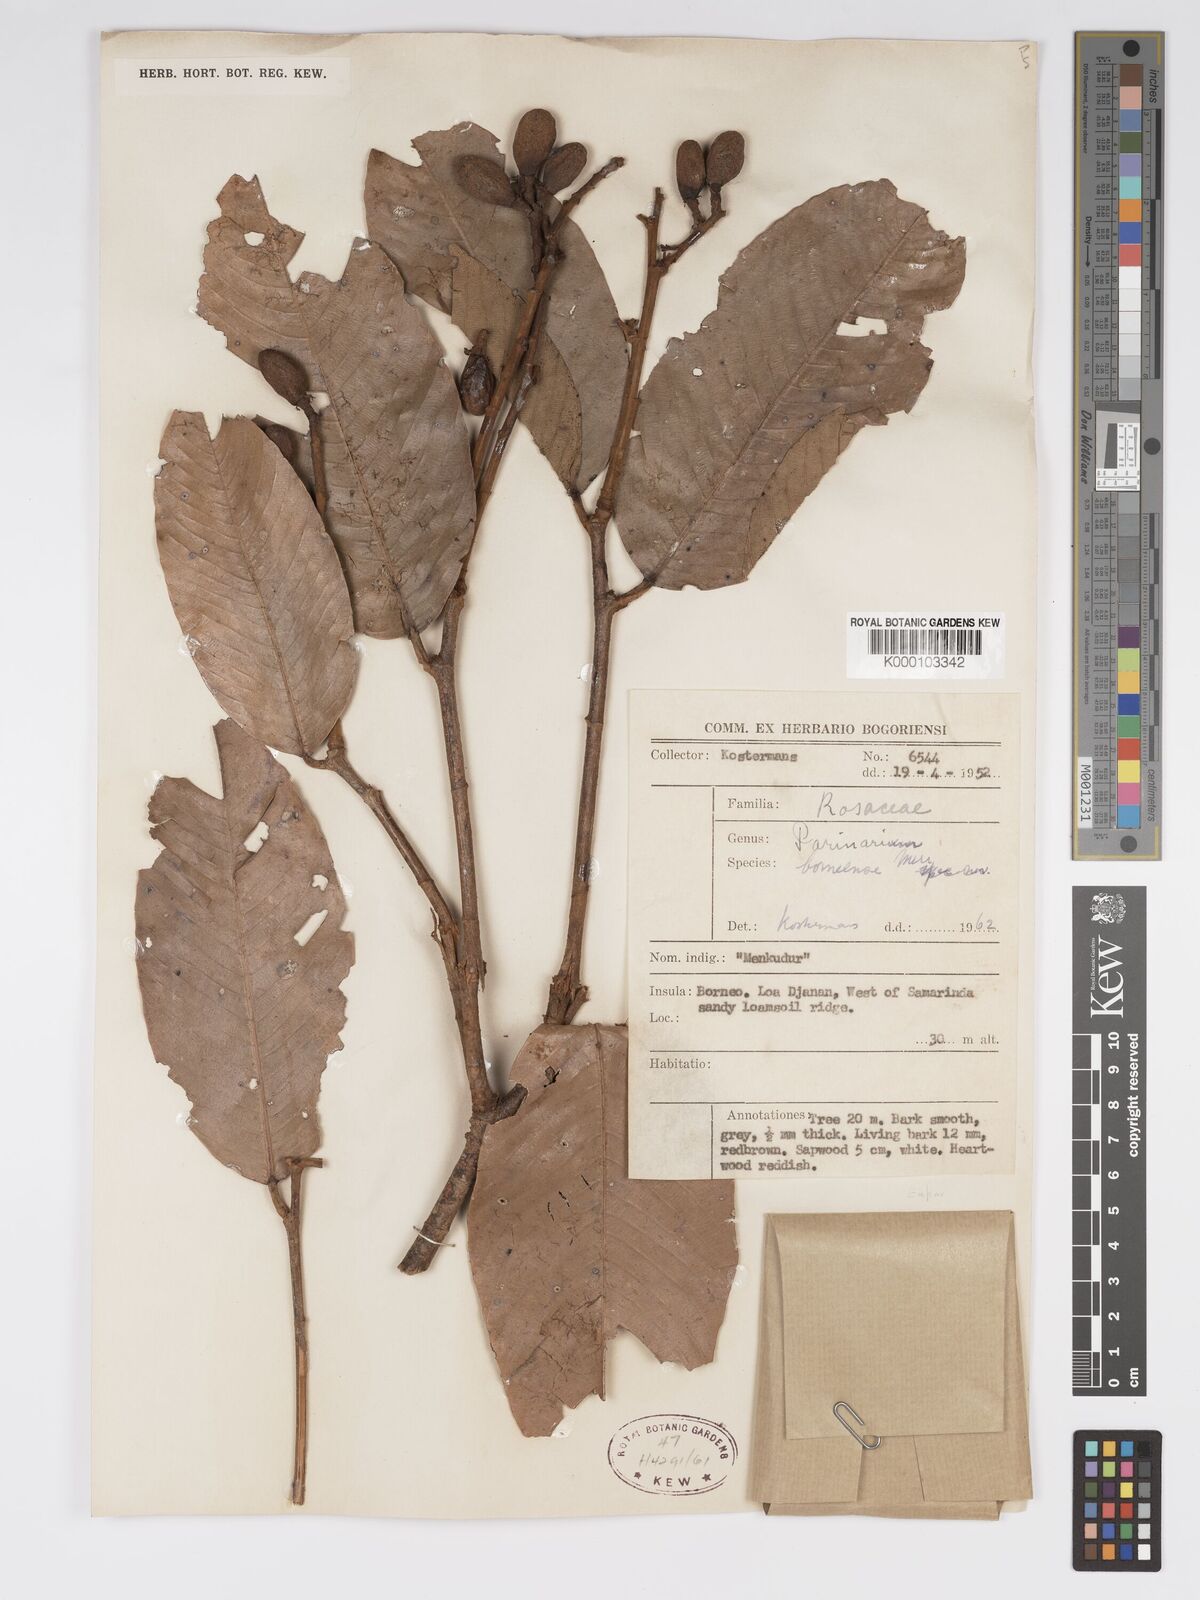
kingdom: Plantae
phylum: Tracheophyta
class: Magnoliopsida
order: Malpighiales
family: Chrysobalanaceae
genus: Parinari
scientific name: Parinari oblongifolia
